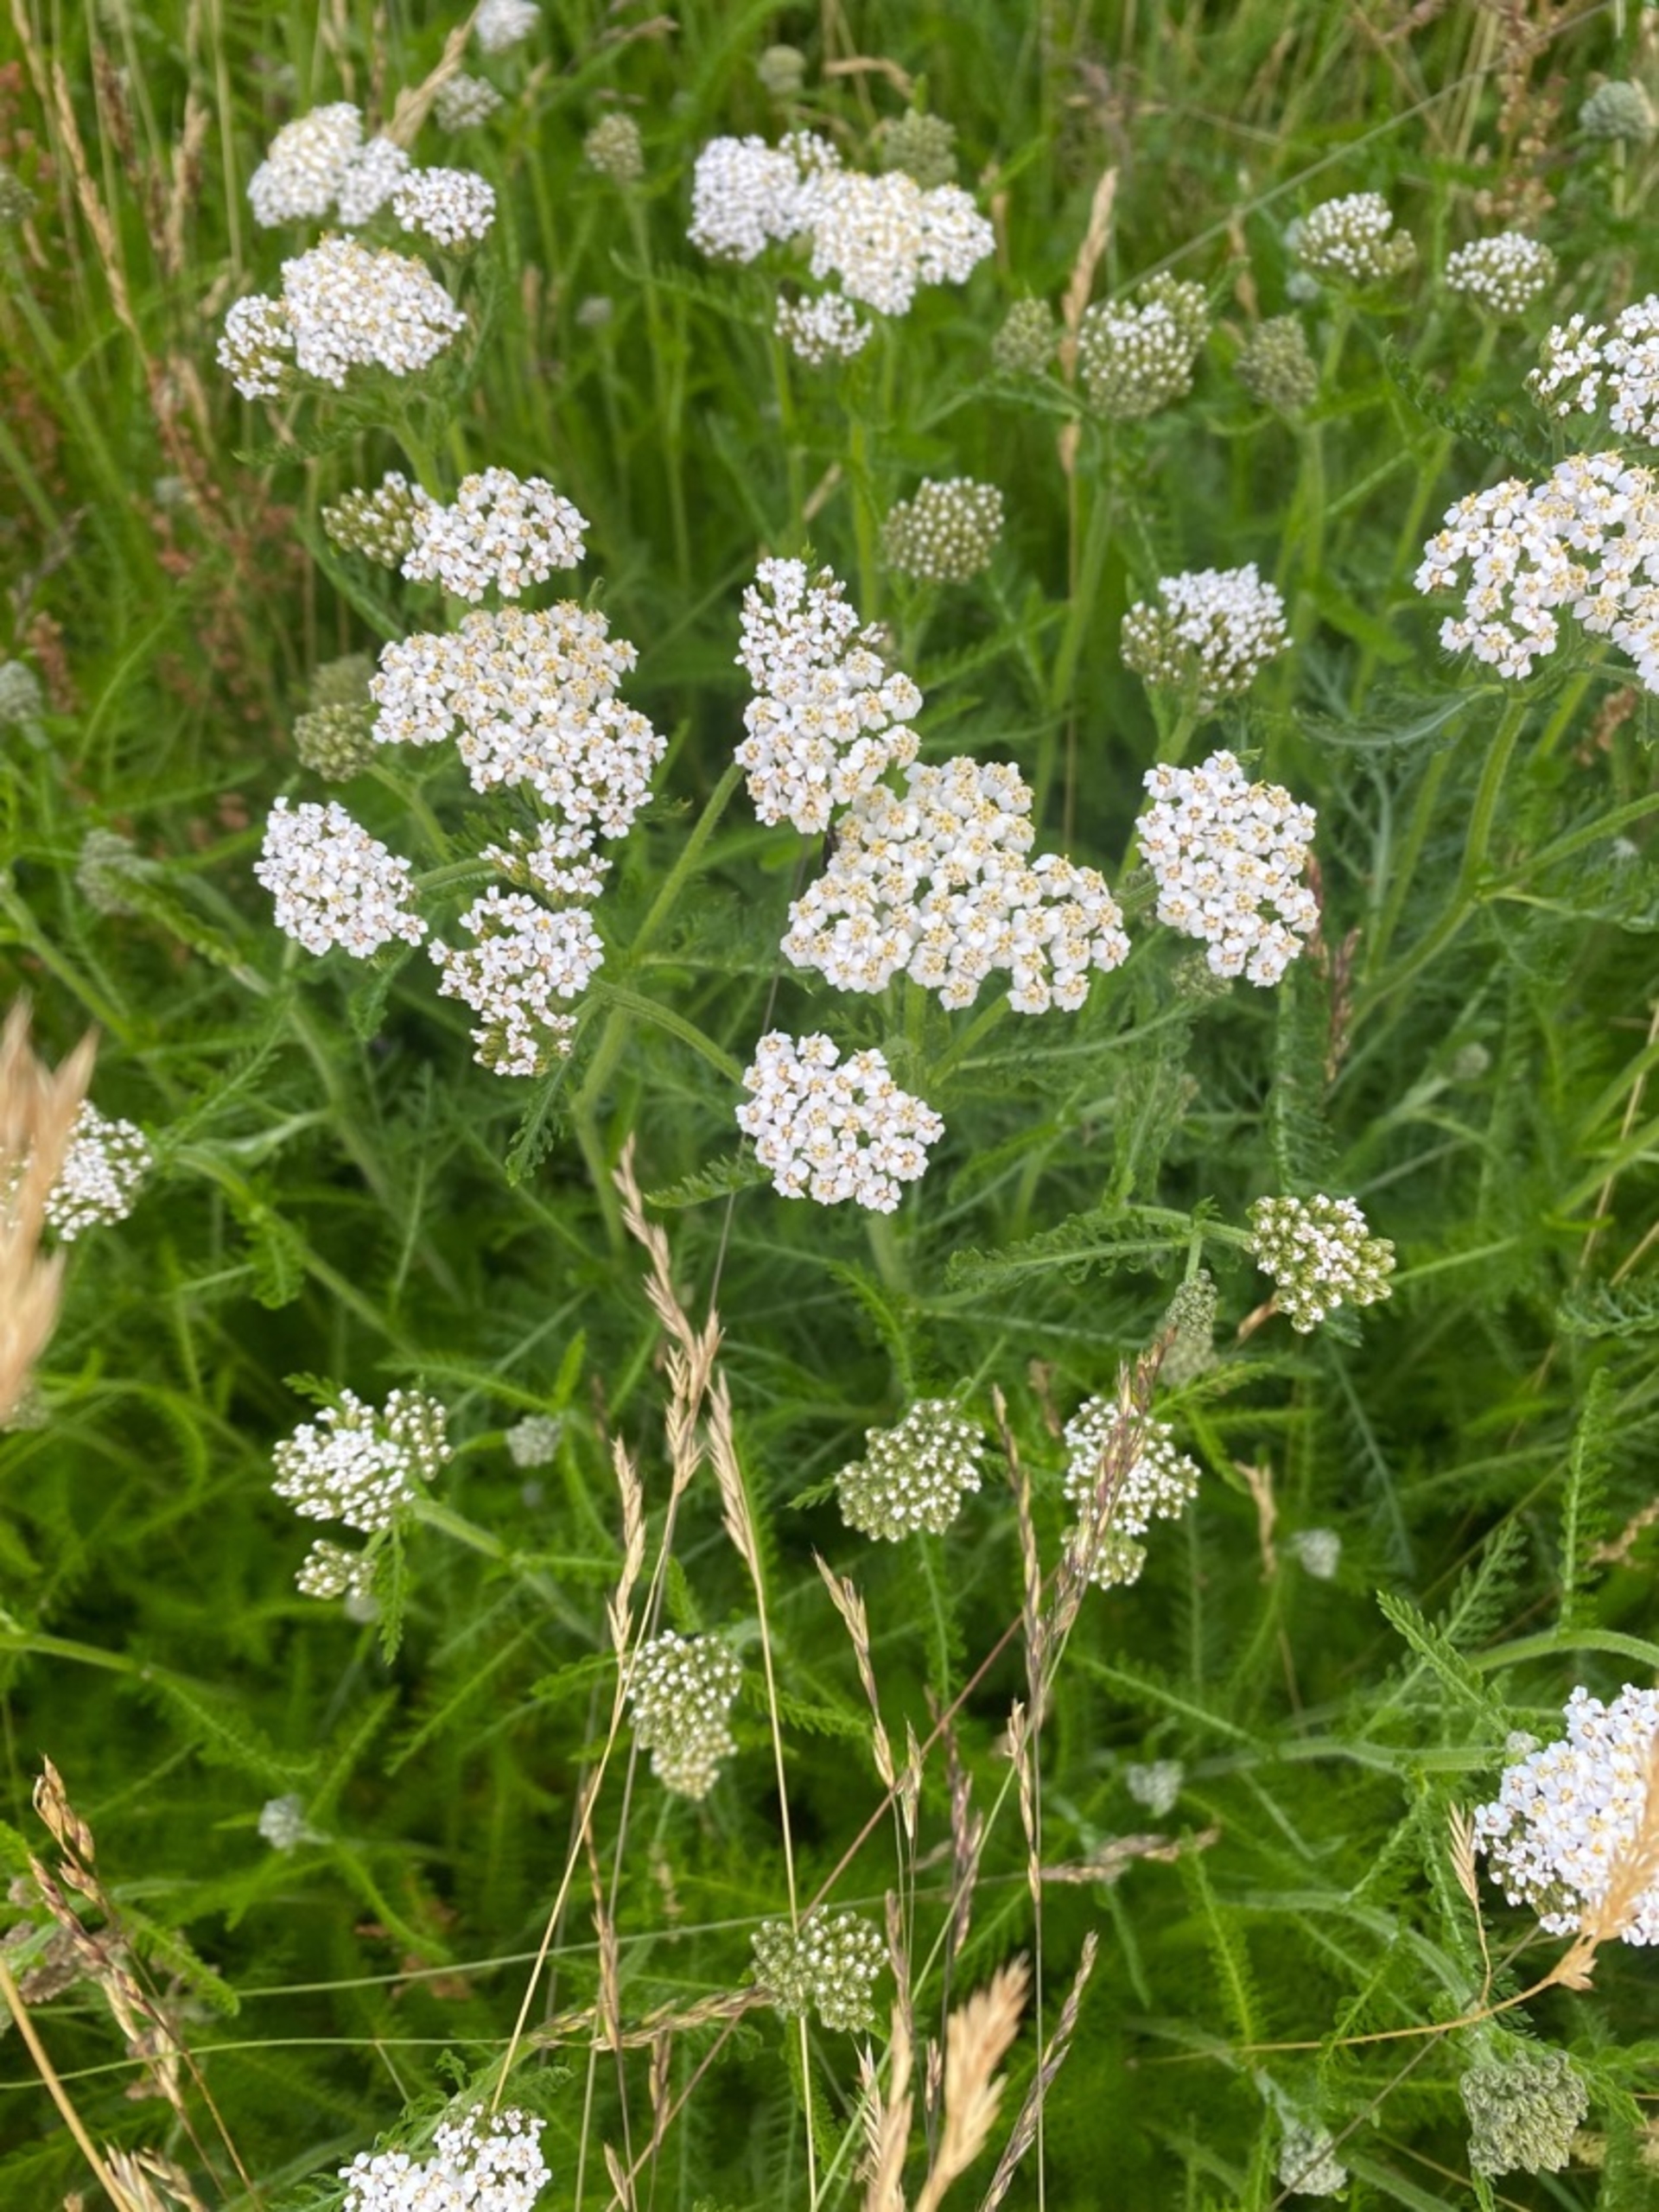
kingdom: Plantae
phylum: Tracheophyta
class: Magnoliopsida
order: Asterales
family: Asteraceae
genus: Achillea
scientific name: Achillea millefolium
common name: Almindelig røllike
